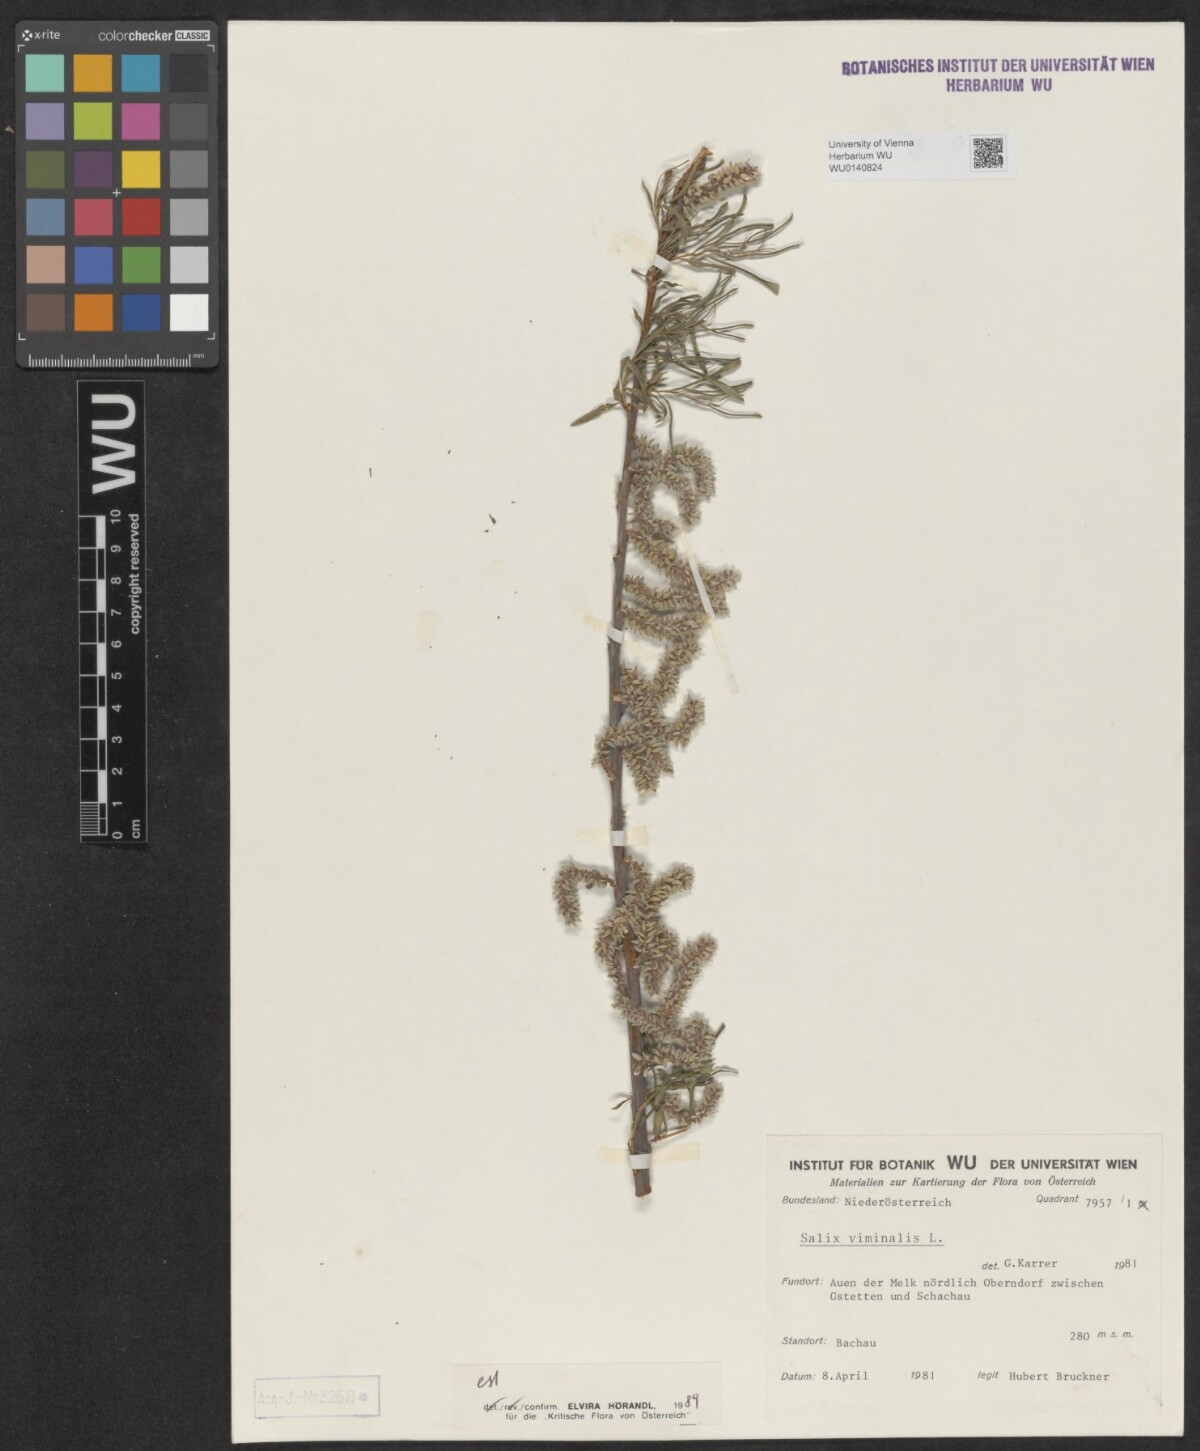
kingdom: Plantae
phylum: Tracheophyta
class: Magnoliopsida
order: Malpighiales
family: Salicaceae
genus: Salix
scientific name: Salix viminalis
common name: Osier
